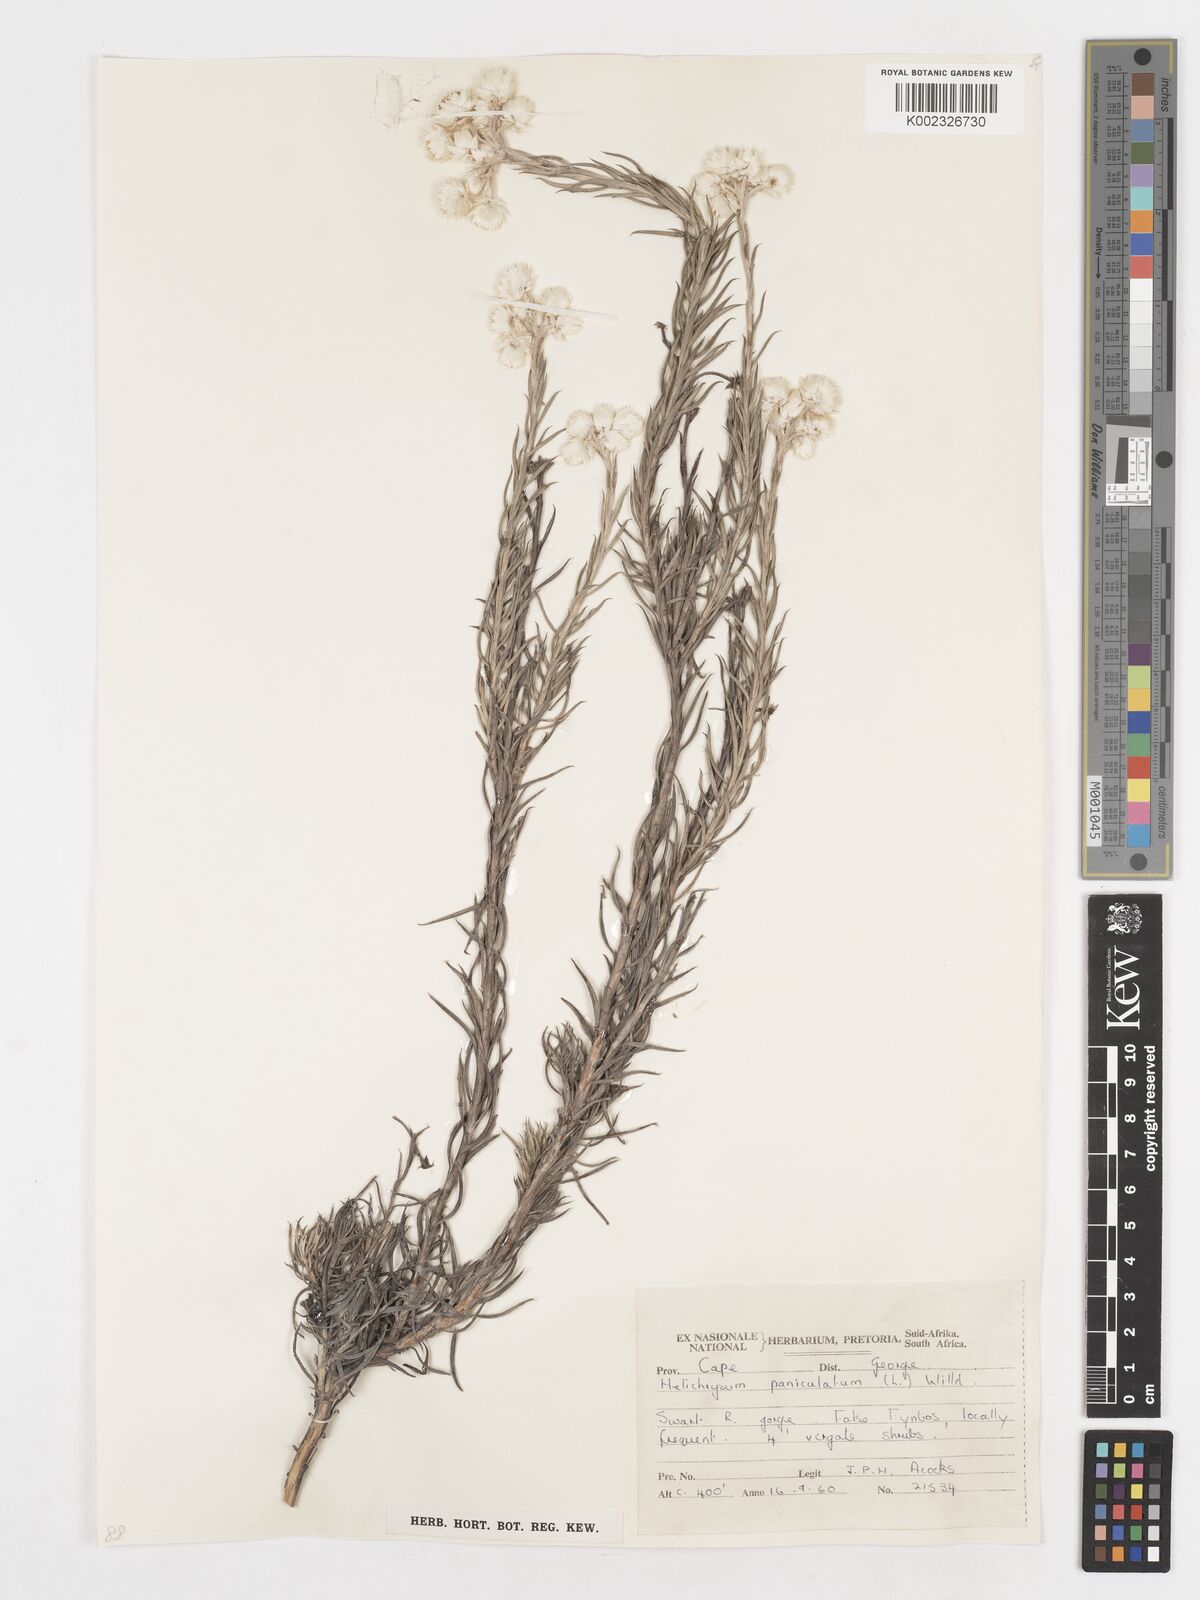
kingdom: Plantae
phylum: Tracheophyta
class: Magnoliopsida
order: Asterales
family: Asteraceae
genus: Achyranthemum
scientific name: Achyranthemum paniculatum
